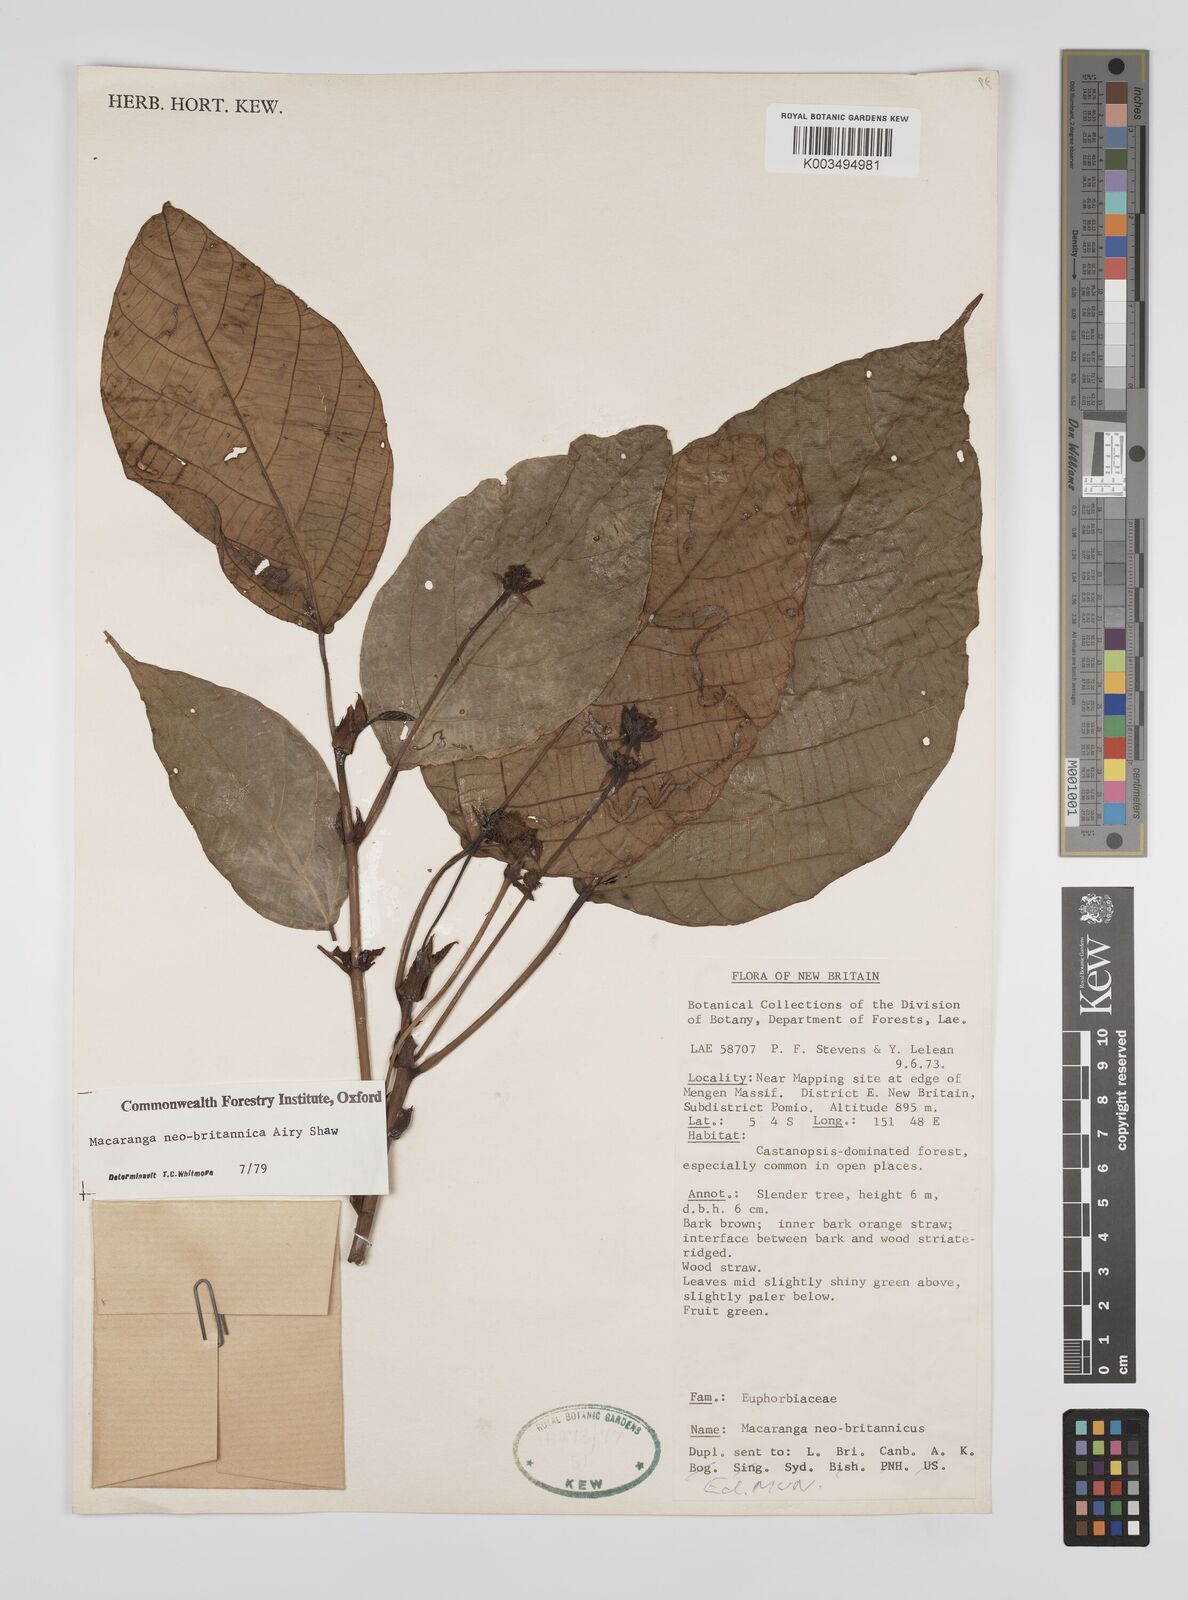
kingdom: Plantae
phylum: Tracheophyta
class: Magnoliopsida
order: Malpighiales
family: Euphorbiaceae
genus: Macaranga
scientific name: Macaranga neobritannica
